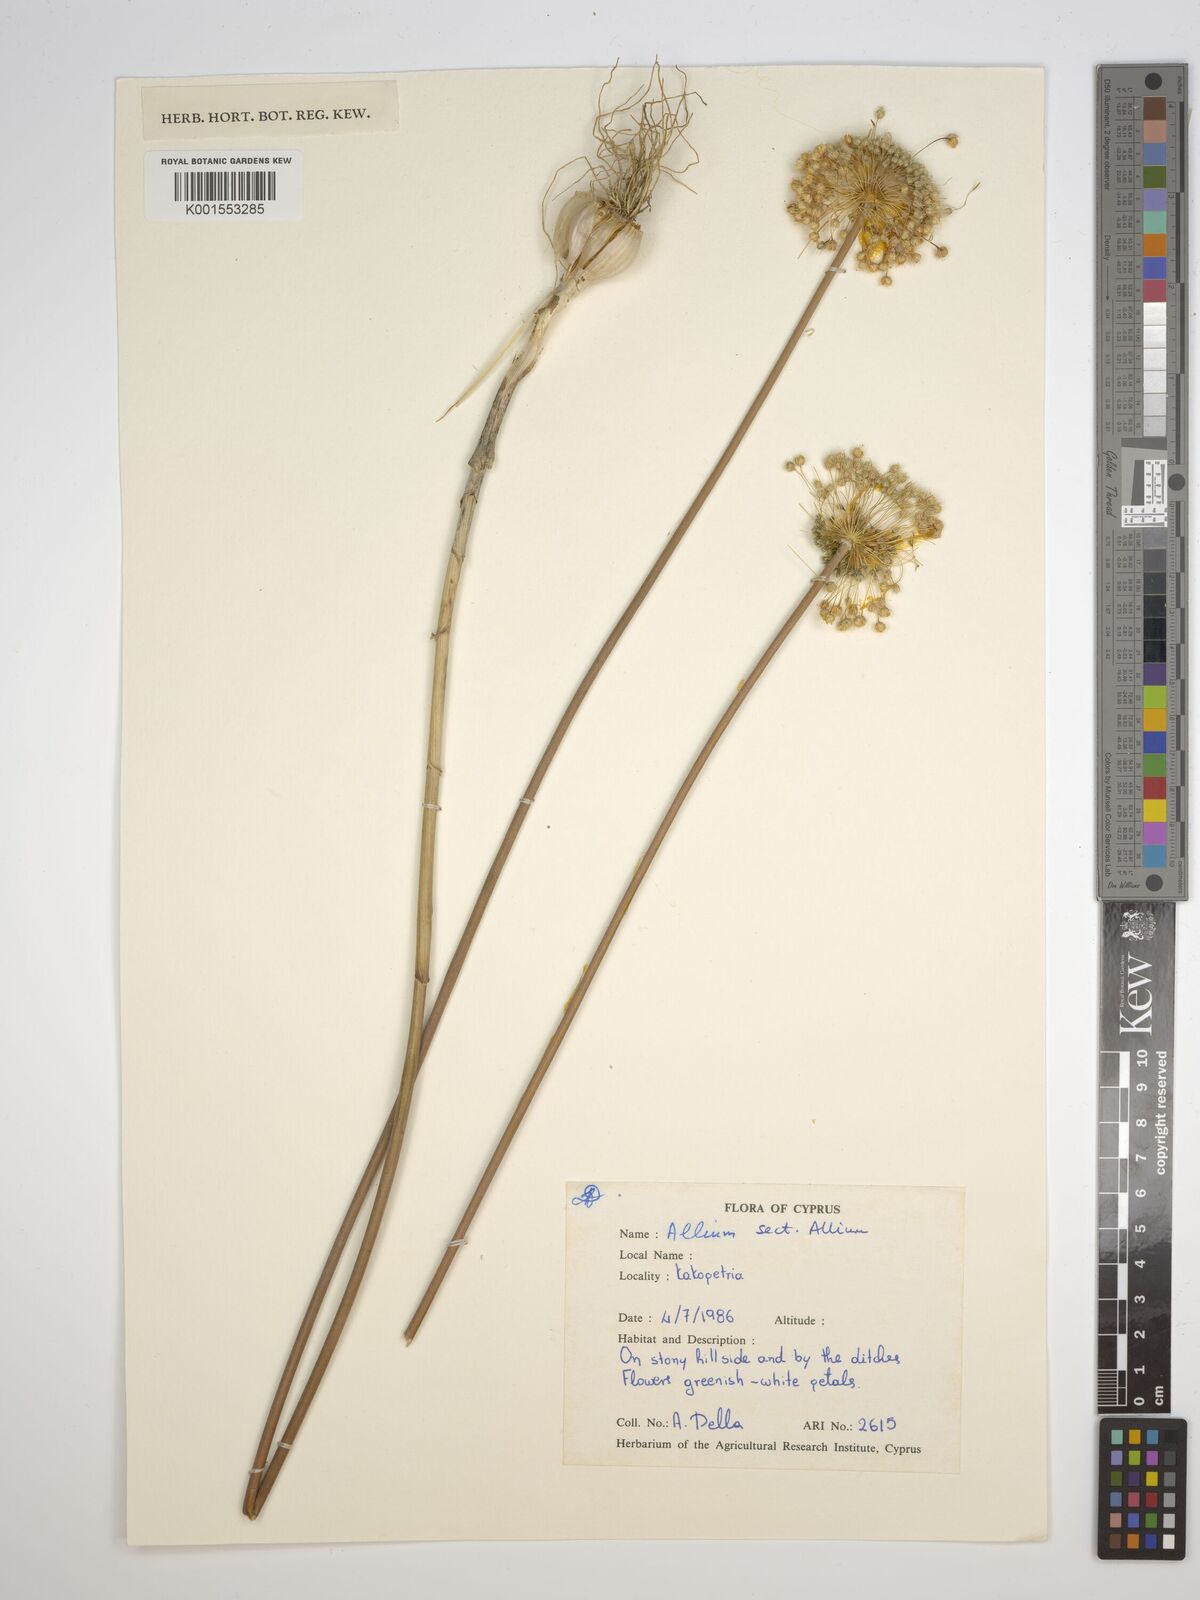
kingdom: Plantae
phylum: Tracheophyta
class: Liliopsida
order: Asparagales
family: Amaryllidaceae
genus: Allium
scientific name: Allium
